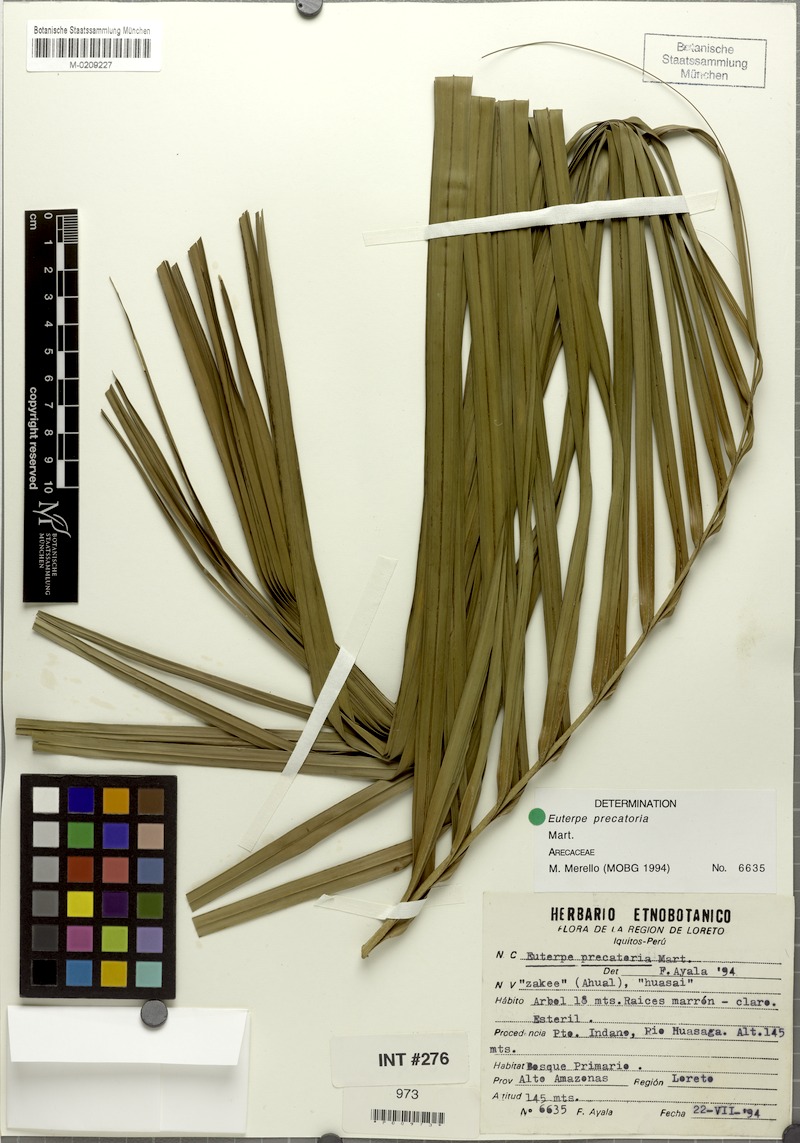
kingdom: Plantae
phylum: Tracheophyta
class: Liliopsida
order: Arecales
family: Arecaceae
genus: Euterpe
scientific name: Euterpe precatoria
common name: Mountain-cabbage
